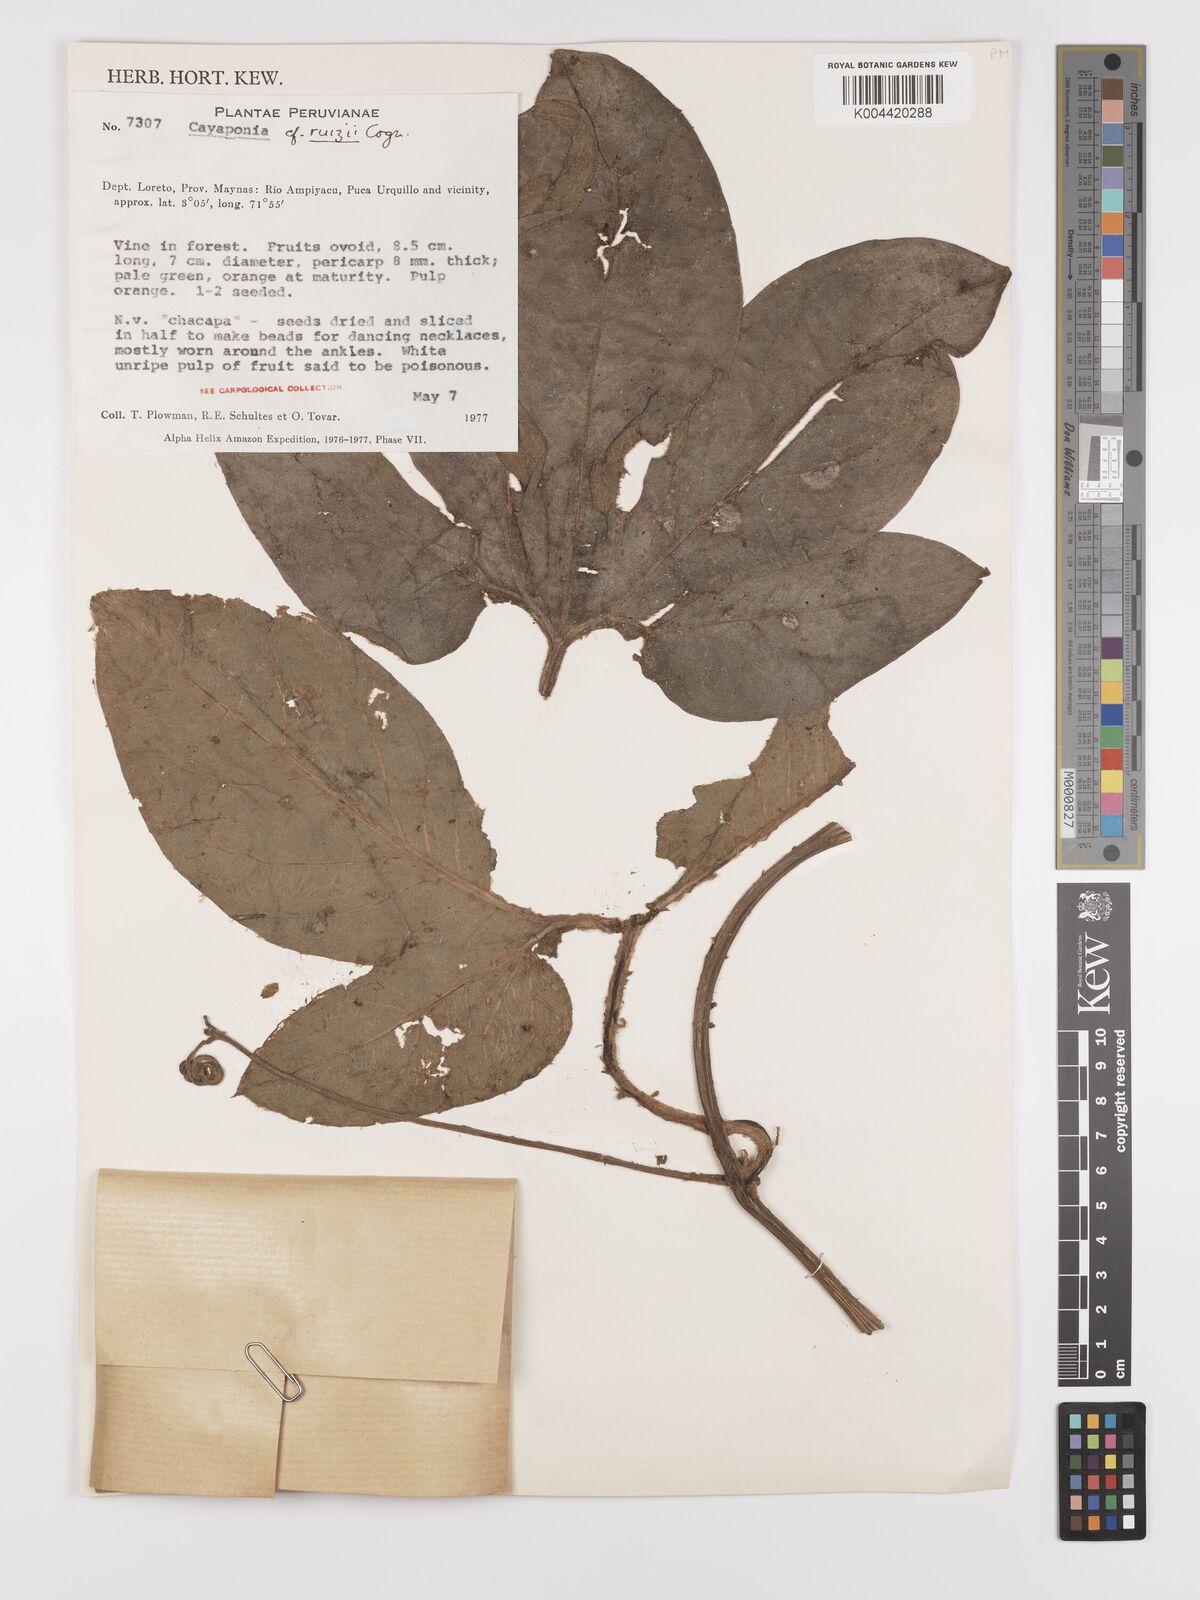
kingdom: Plantae
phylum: Tracheophyta
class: Magnoliopsida
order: Cucurbitales
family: Cucurbitaceae
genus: Cayaponia
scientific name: Cayaponia ruizii
